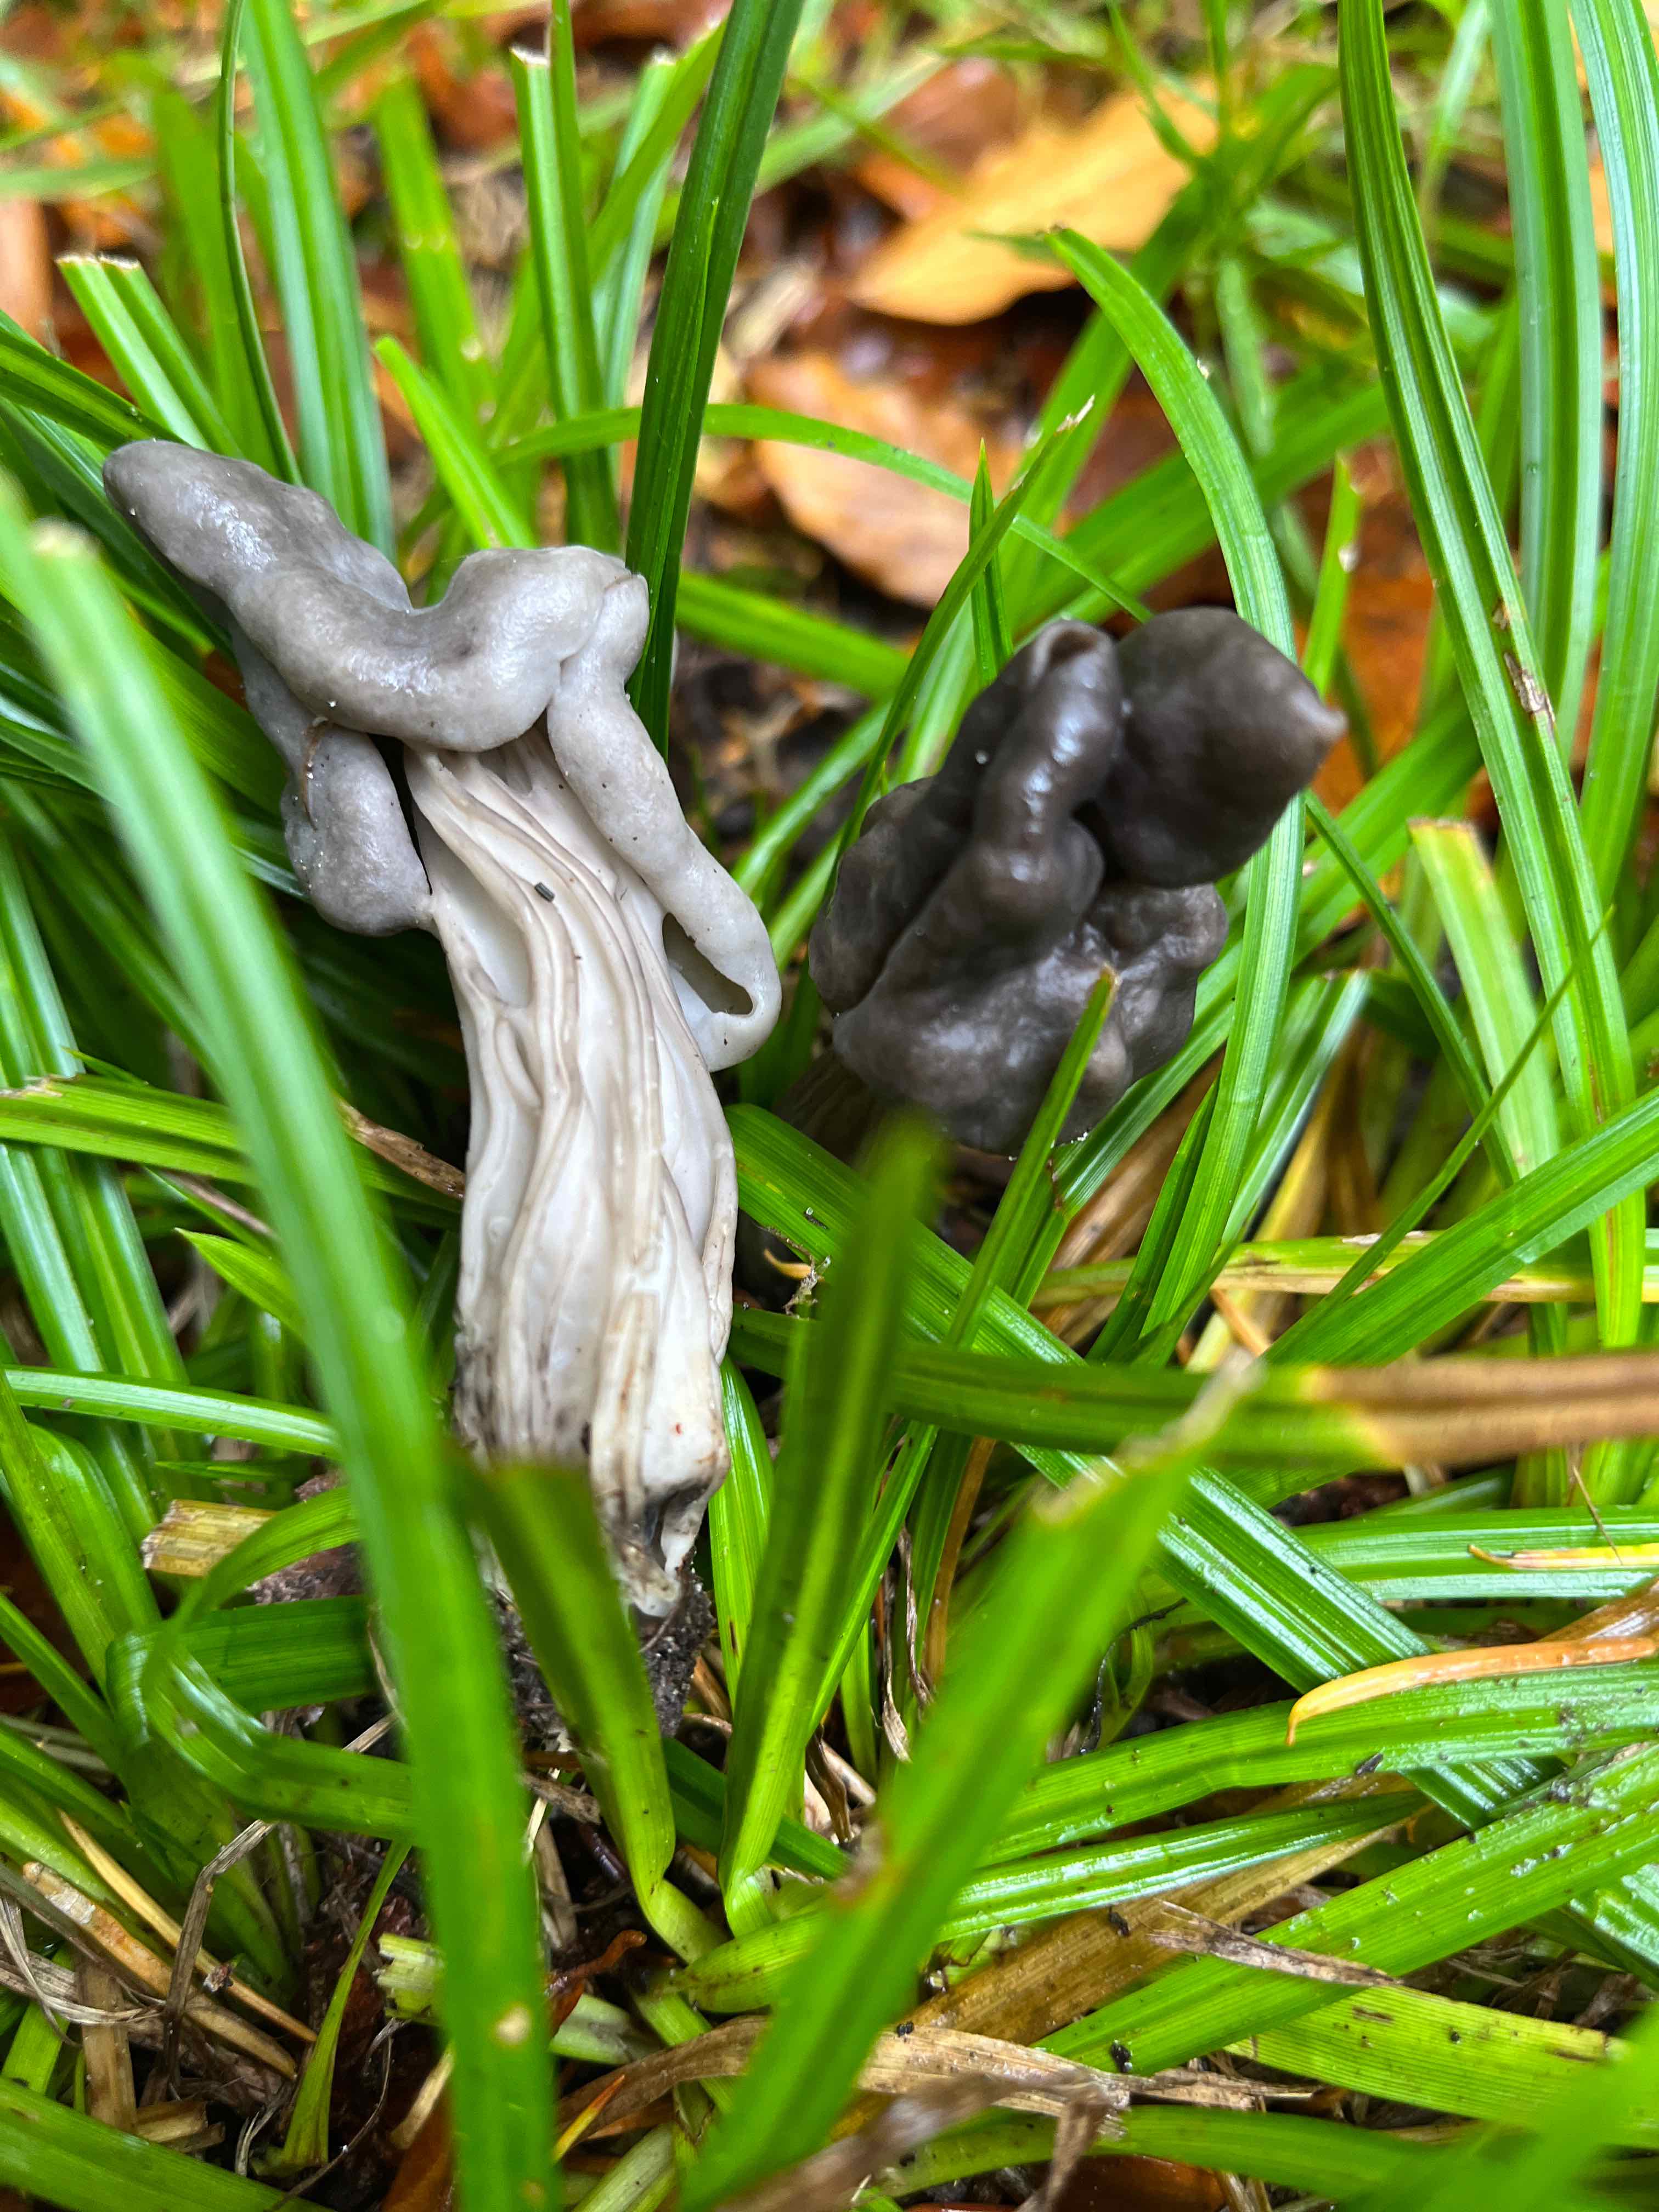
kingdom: Fungi
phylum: Ascomycota
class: Pezizomycetes
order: Pezizales
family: Helvellaceae
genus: Helvella
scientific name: Helvella lacunosa
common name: grubet foldhat
